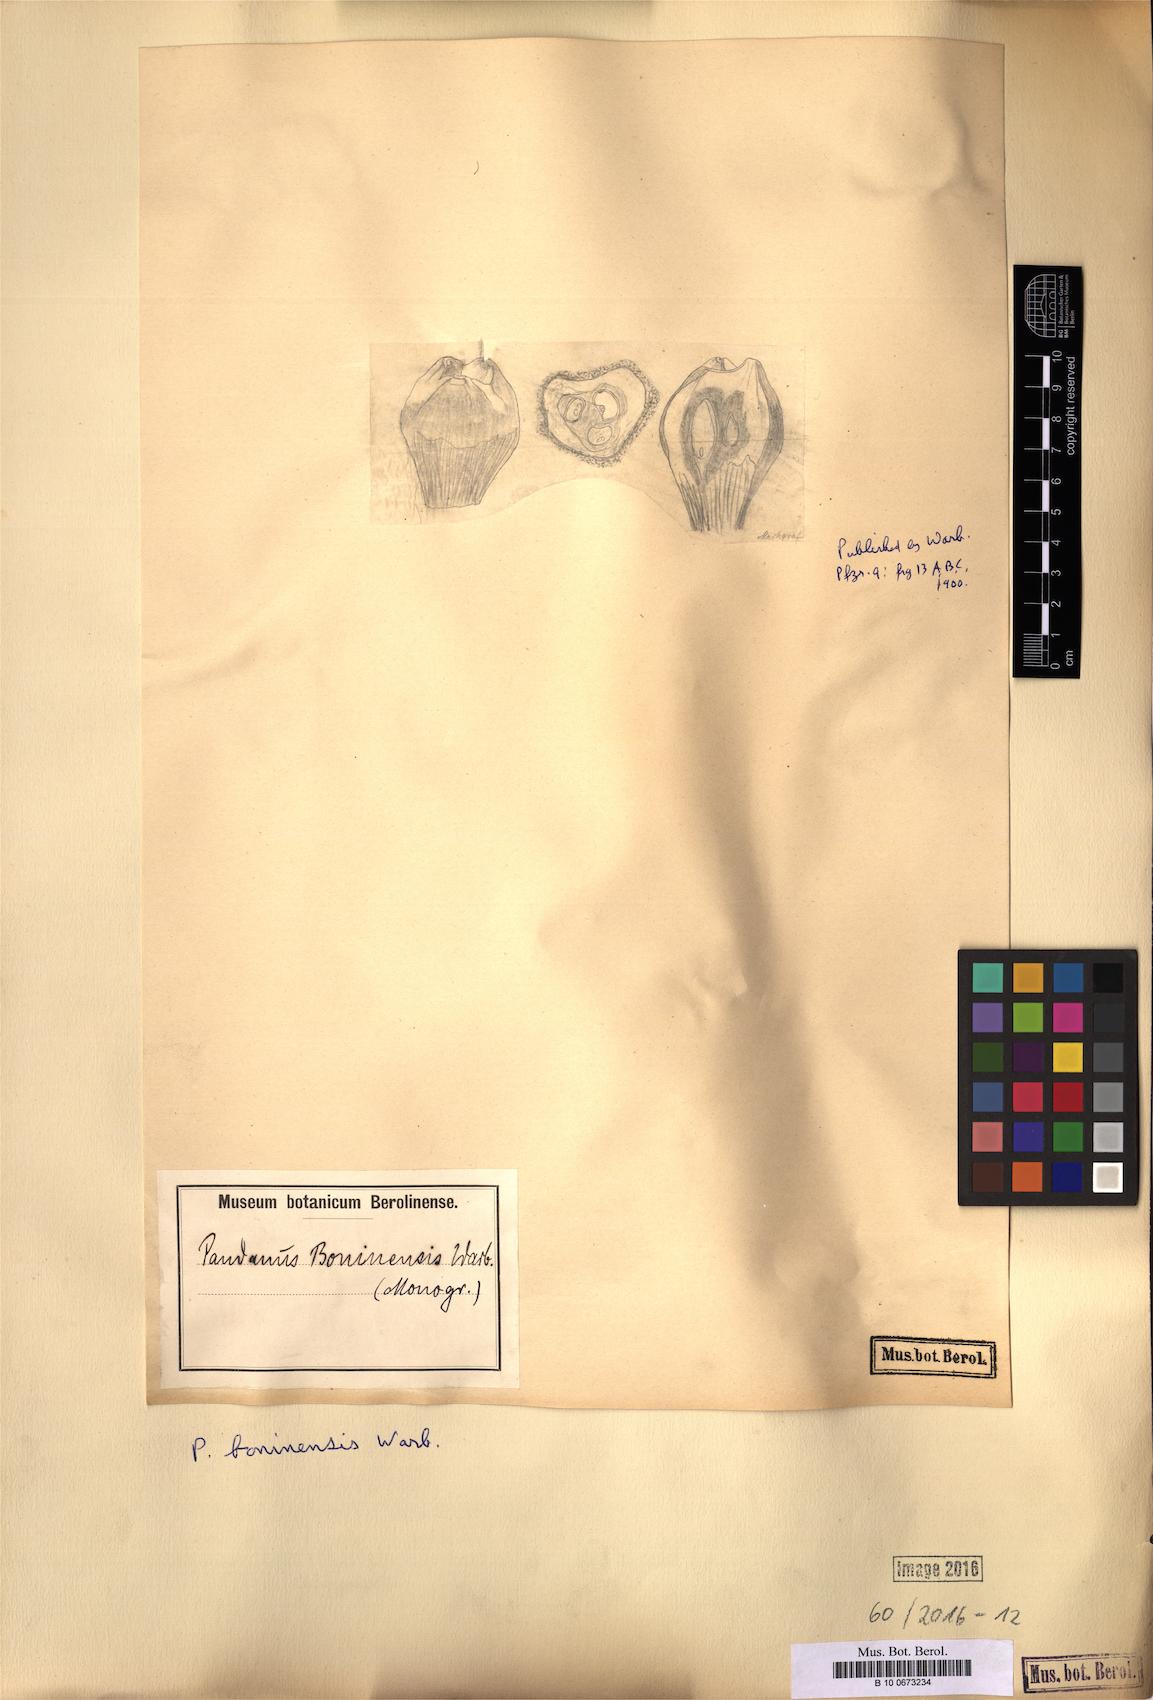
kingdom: Plantae
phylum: Tracheophyta
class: Liliopsida
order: Pandanales
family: Pandanaceae
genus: Pandanus
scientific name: Pandanus boninensis
